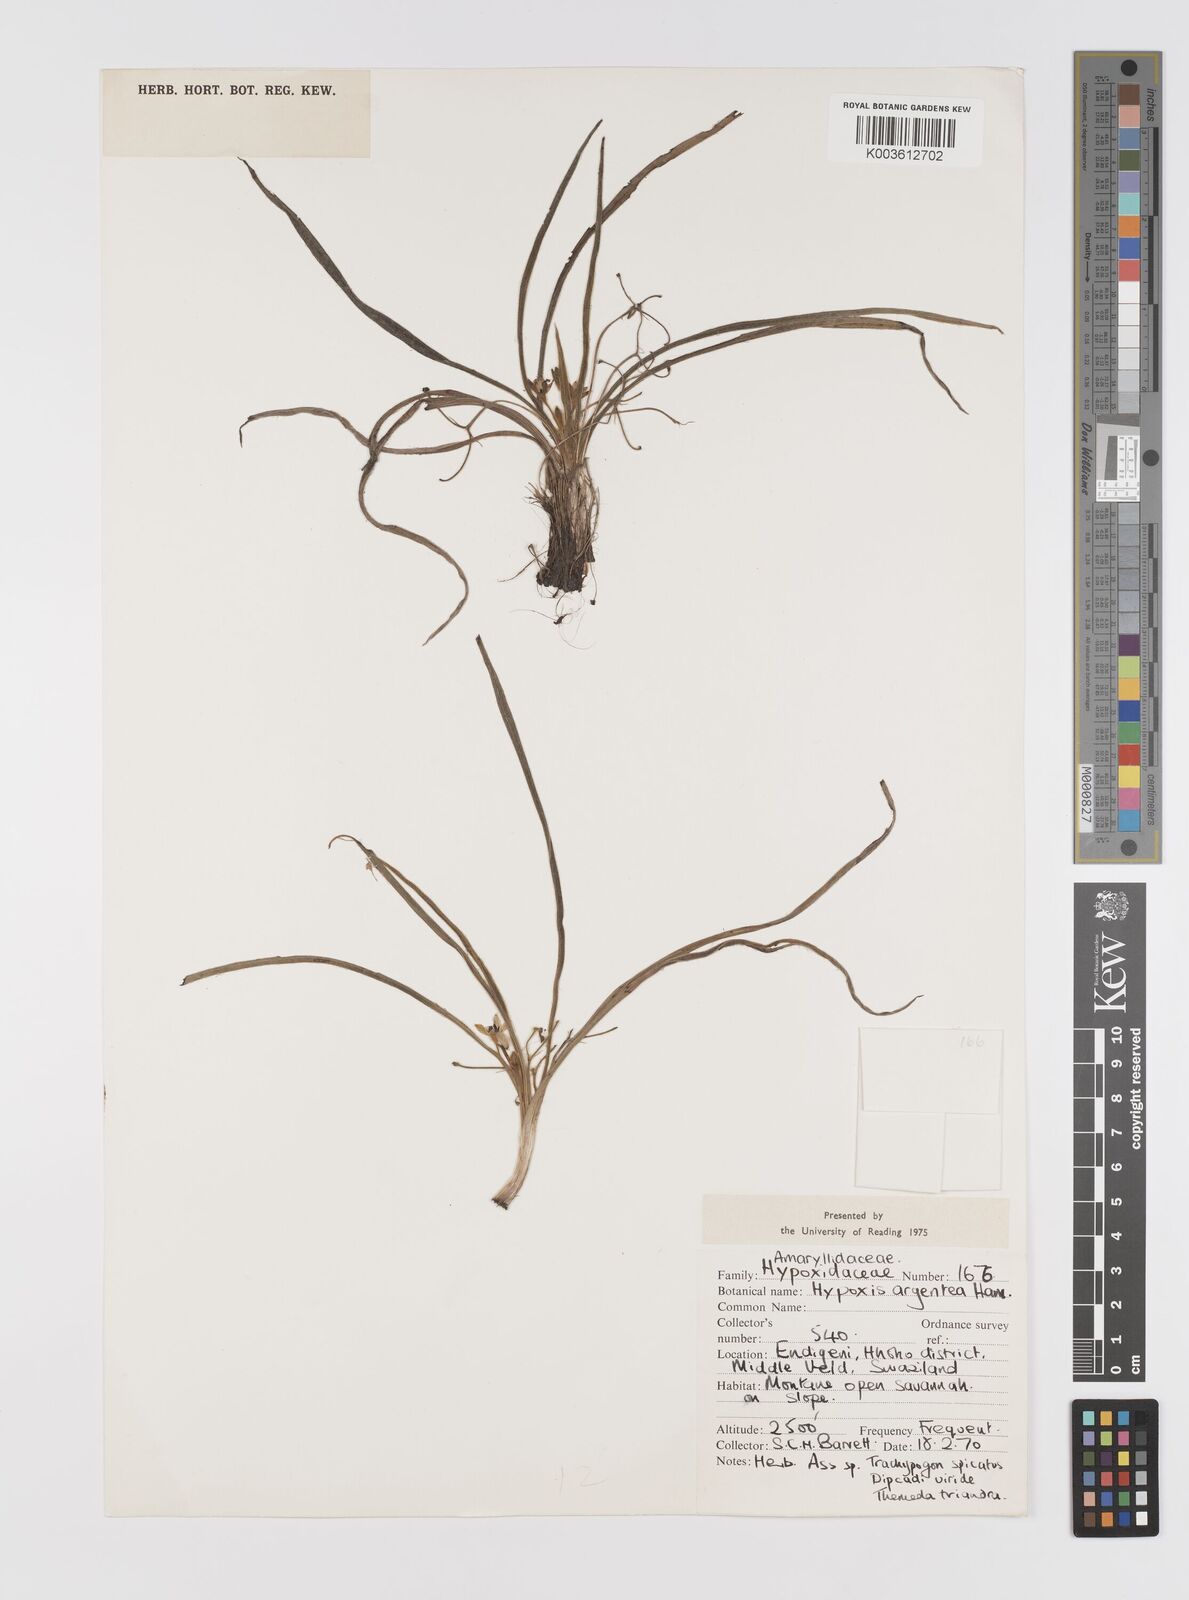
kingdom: Plantae
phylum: Tracheophyta
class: Liliopsida
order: Asparagales
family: Hypoxidaceae
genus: Hypoxis
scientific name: Hypoxis argentea
